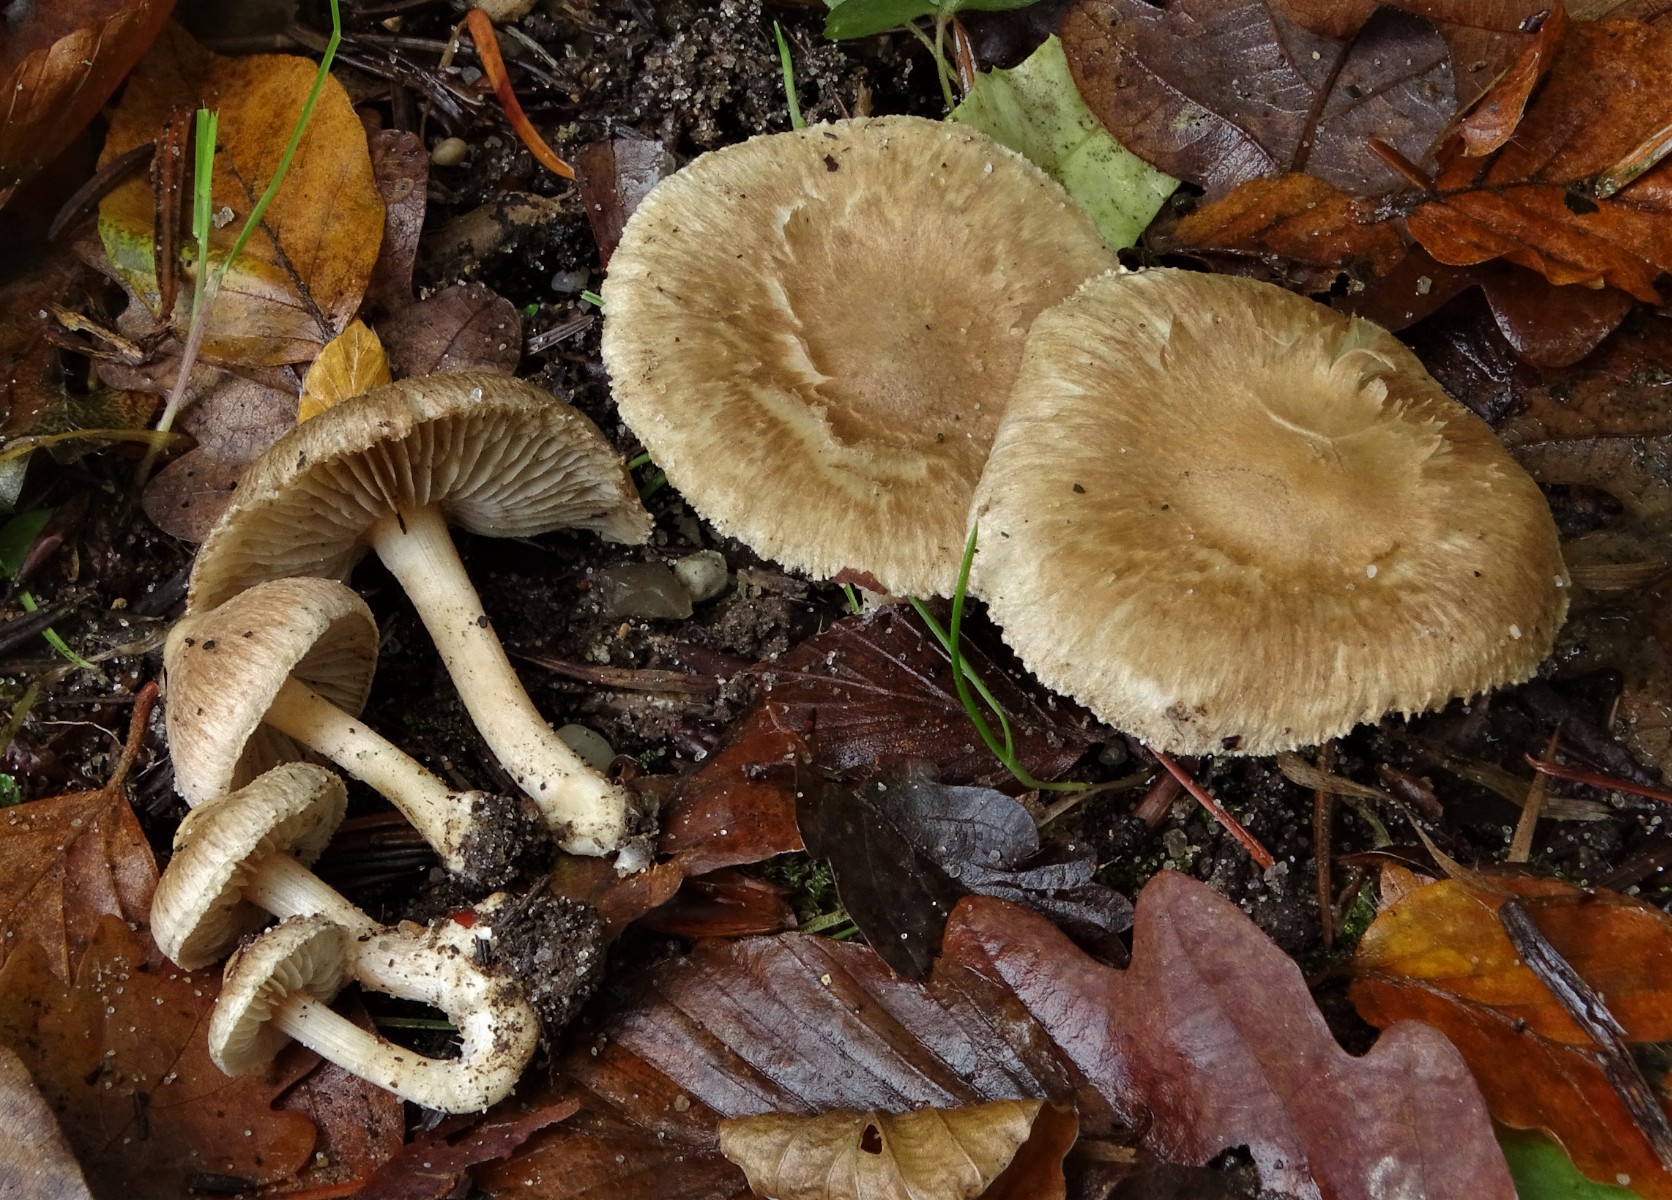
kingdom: Fungi
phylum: Basidiomycota
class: Agaricomycetes
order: Agaricales
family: Inocybaceae
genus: Inocybe
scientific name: Inocybe sindonia
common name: bleg trævlhat
